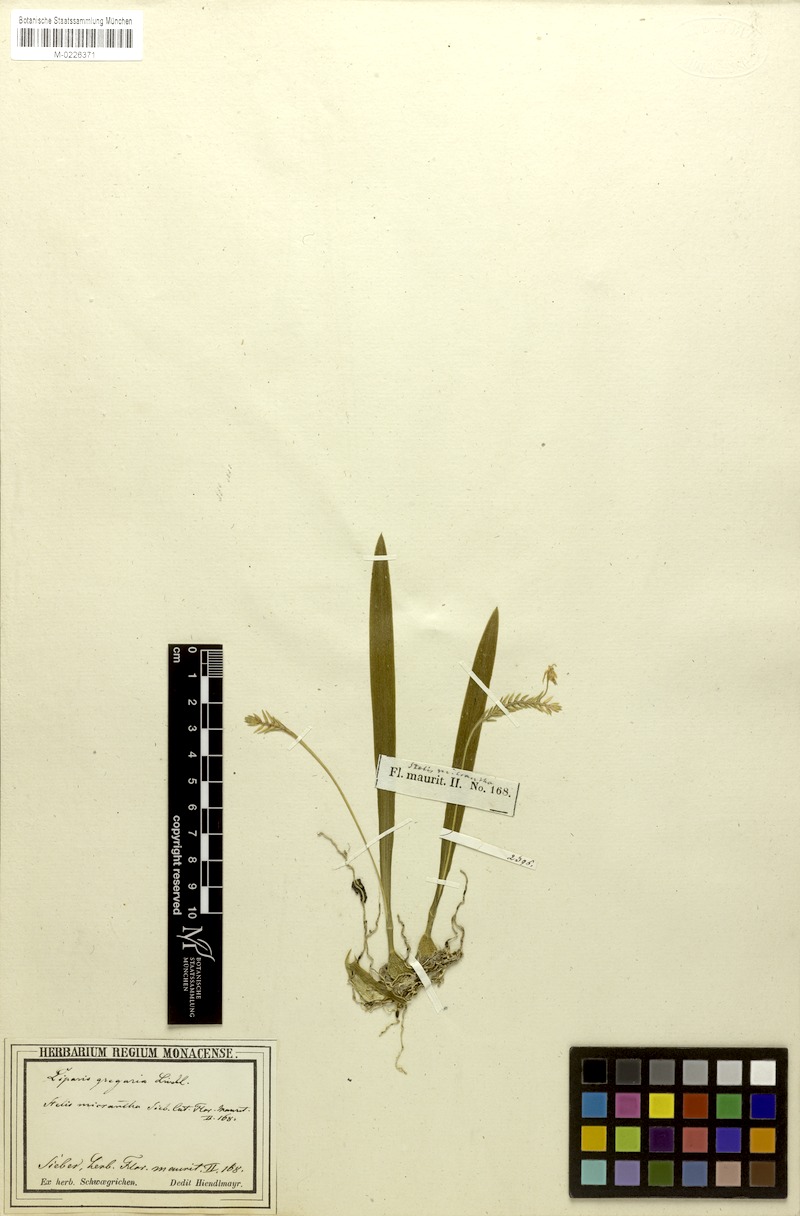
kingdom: Plantae
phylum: Tracheophyta
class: Liliopsida
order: Asparagales
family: Orchidaceae
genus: Stichorkis
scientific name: Stichorkis distichis
